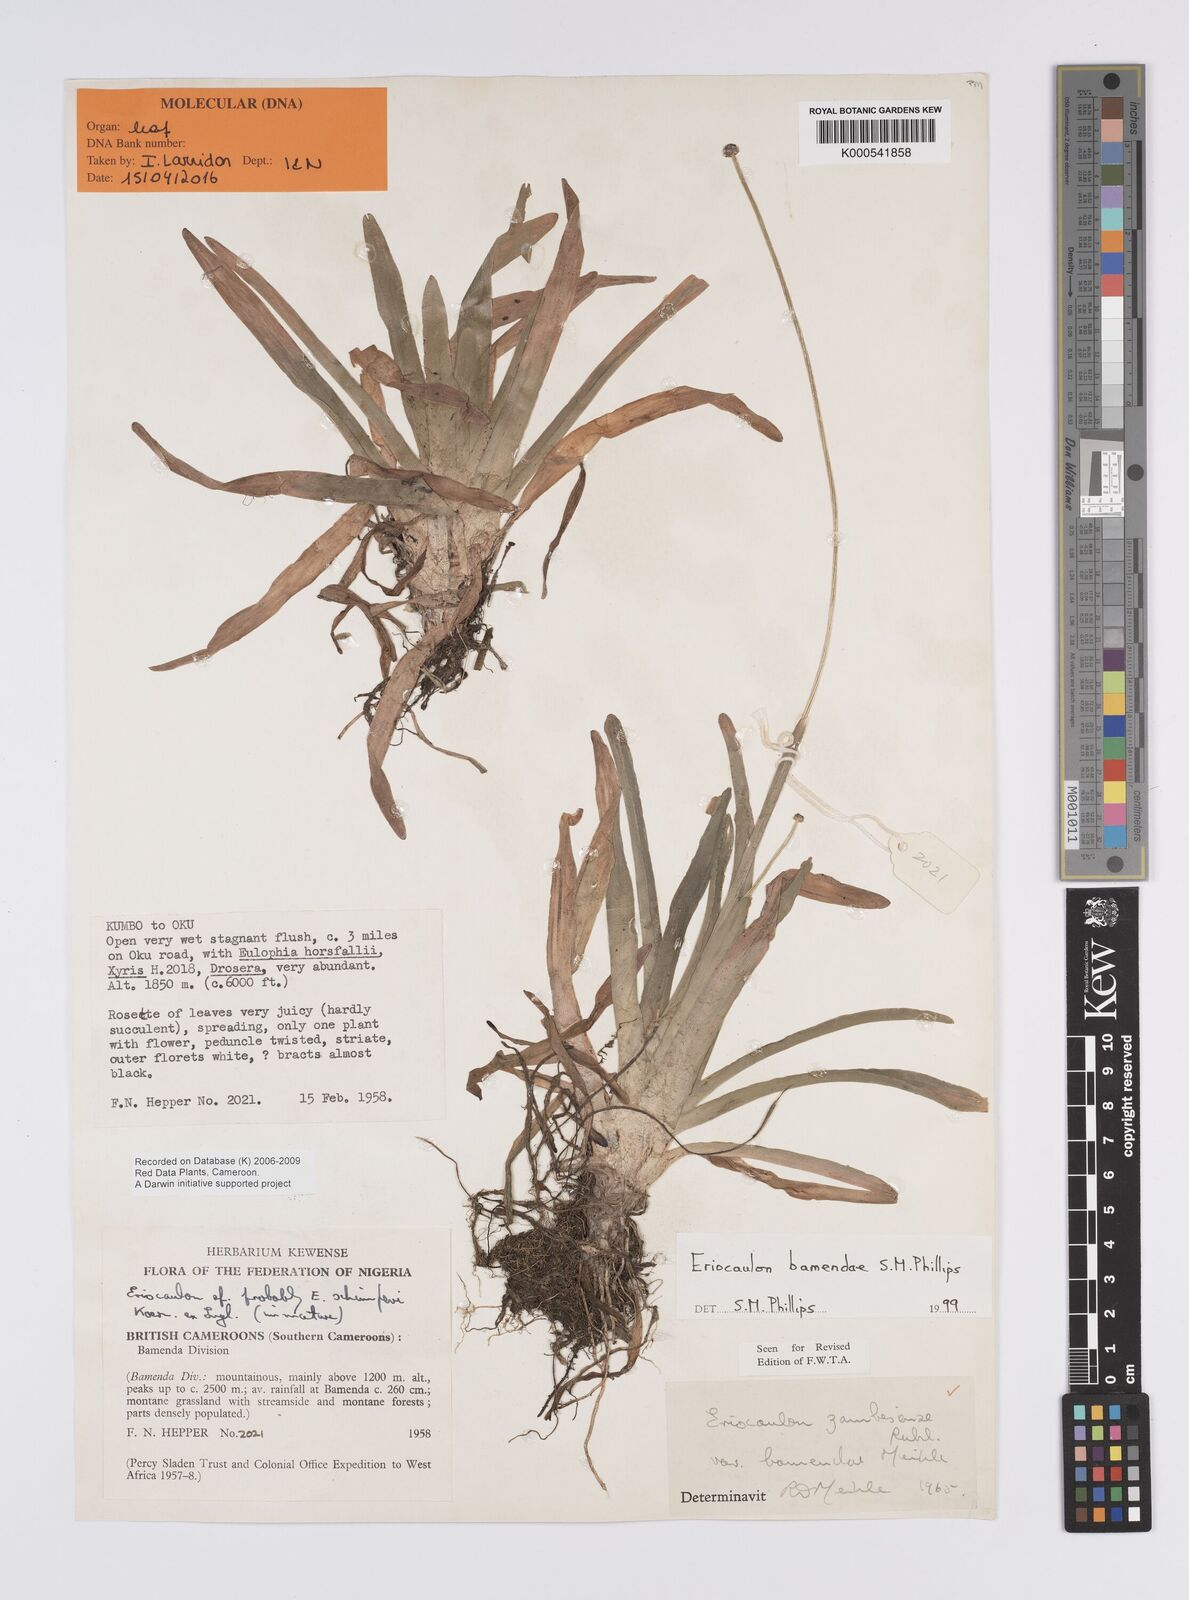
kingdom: Plantae
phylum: Tracheophyta
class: Liliopsida
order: Poales
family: Eriocaulaceae
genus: Eriocaulon
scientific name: Eriocaulon bamendae
